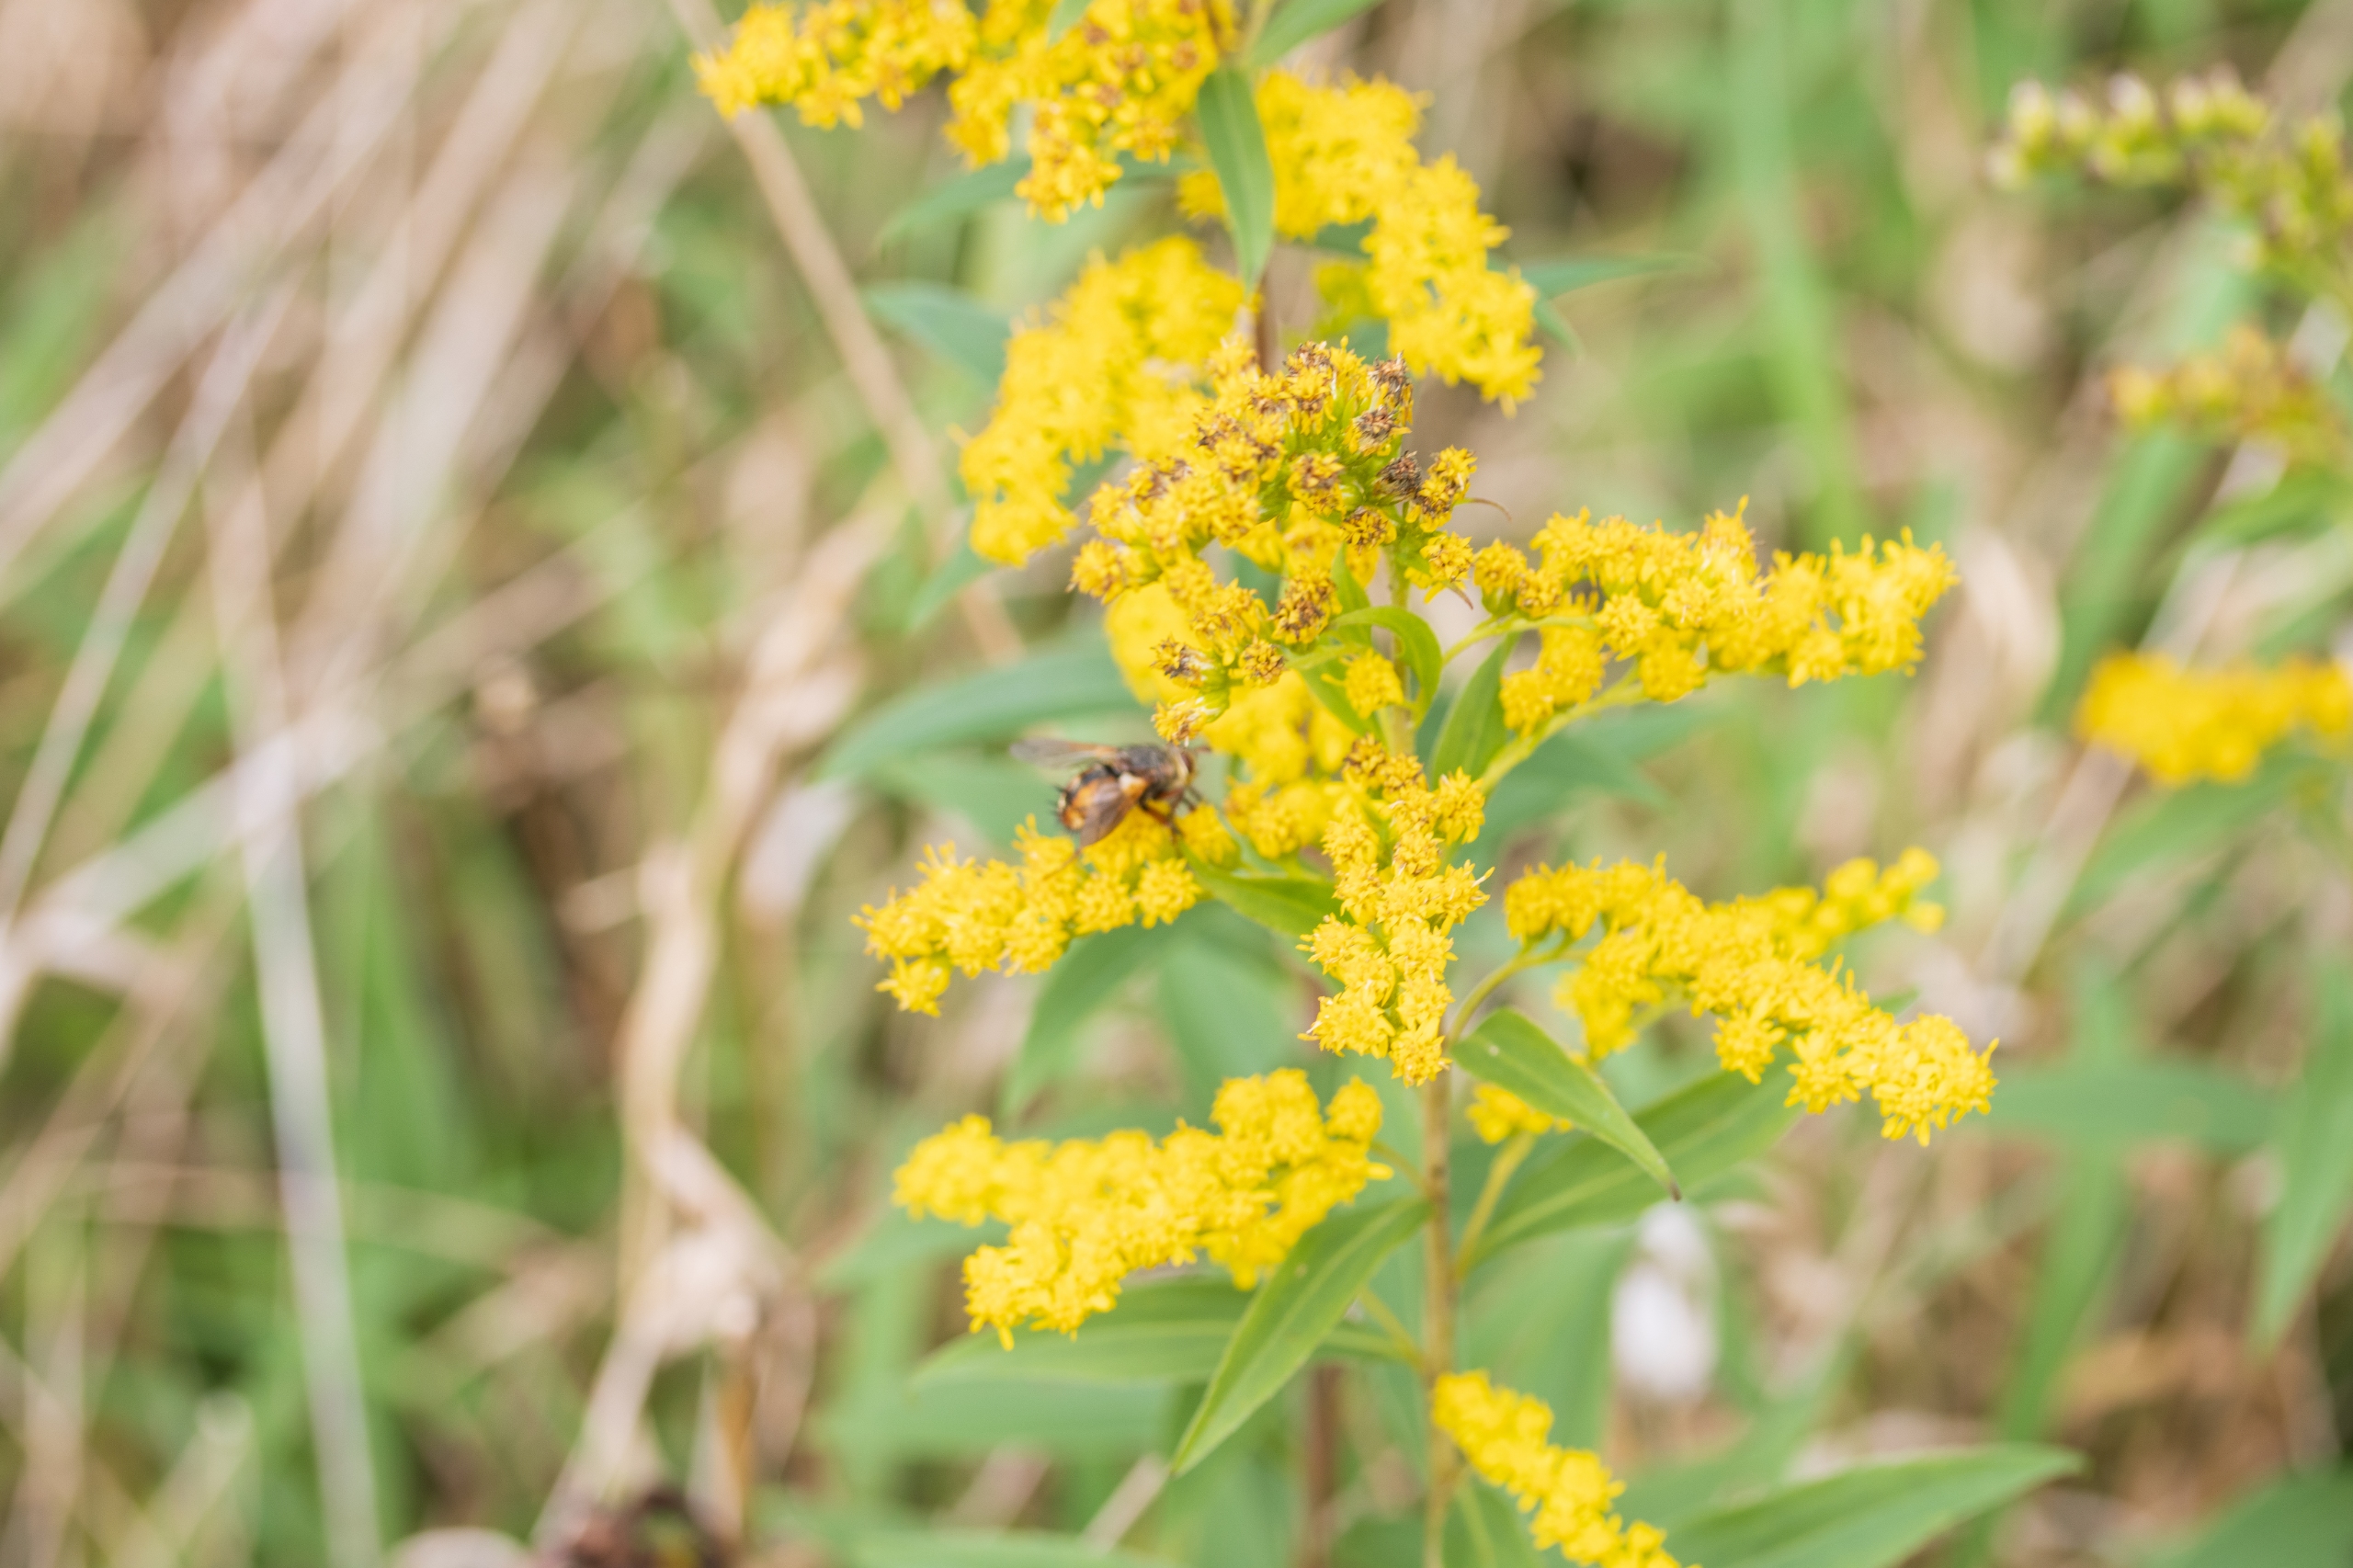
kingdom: Plantae
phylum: Tracheophyta
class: Magnoliopsida
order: Asterales
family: Asteraceae
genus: Solidago
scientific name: Solidago gigantea
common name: Sildig gyldenris
